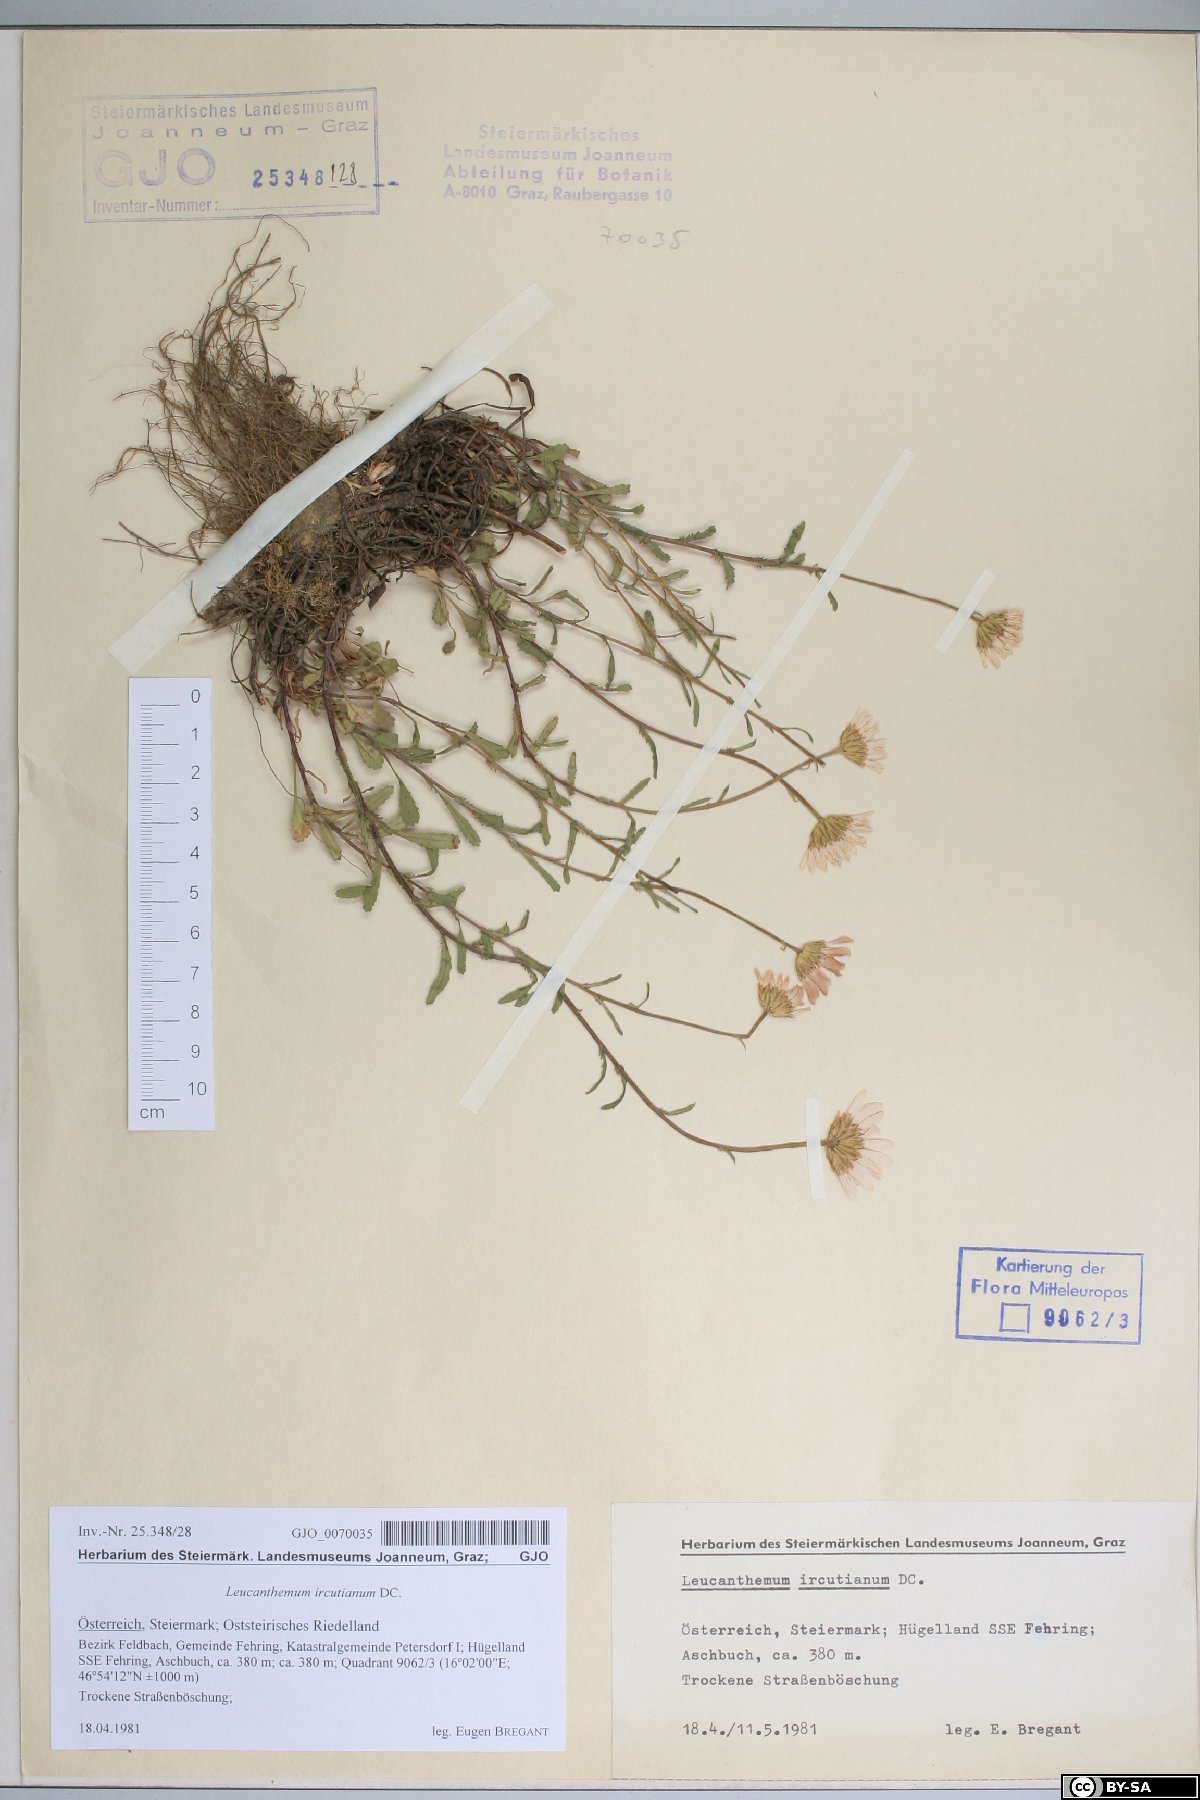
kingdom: Plantae
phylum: Tracheophyta
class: Magnoliopsida
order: Asterales
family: Asteraceae
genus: Leucanthemum
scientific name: Leucanthemum ircutianum
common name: Daisy
